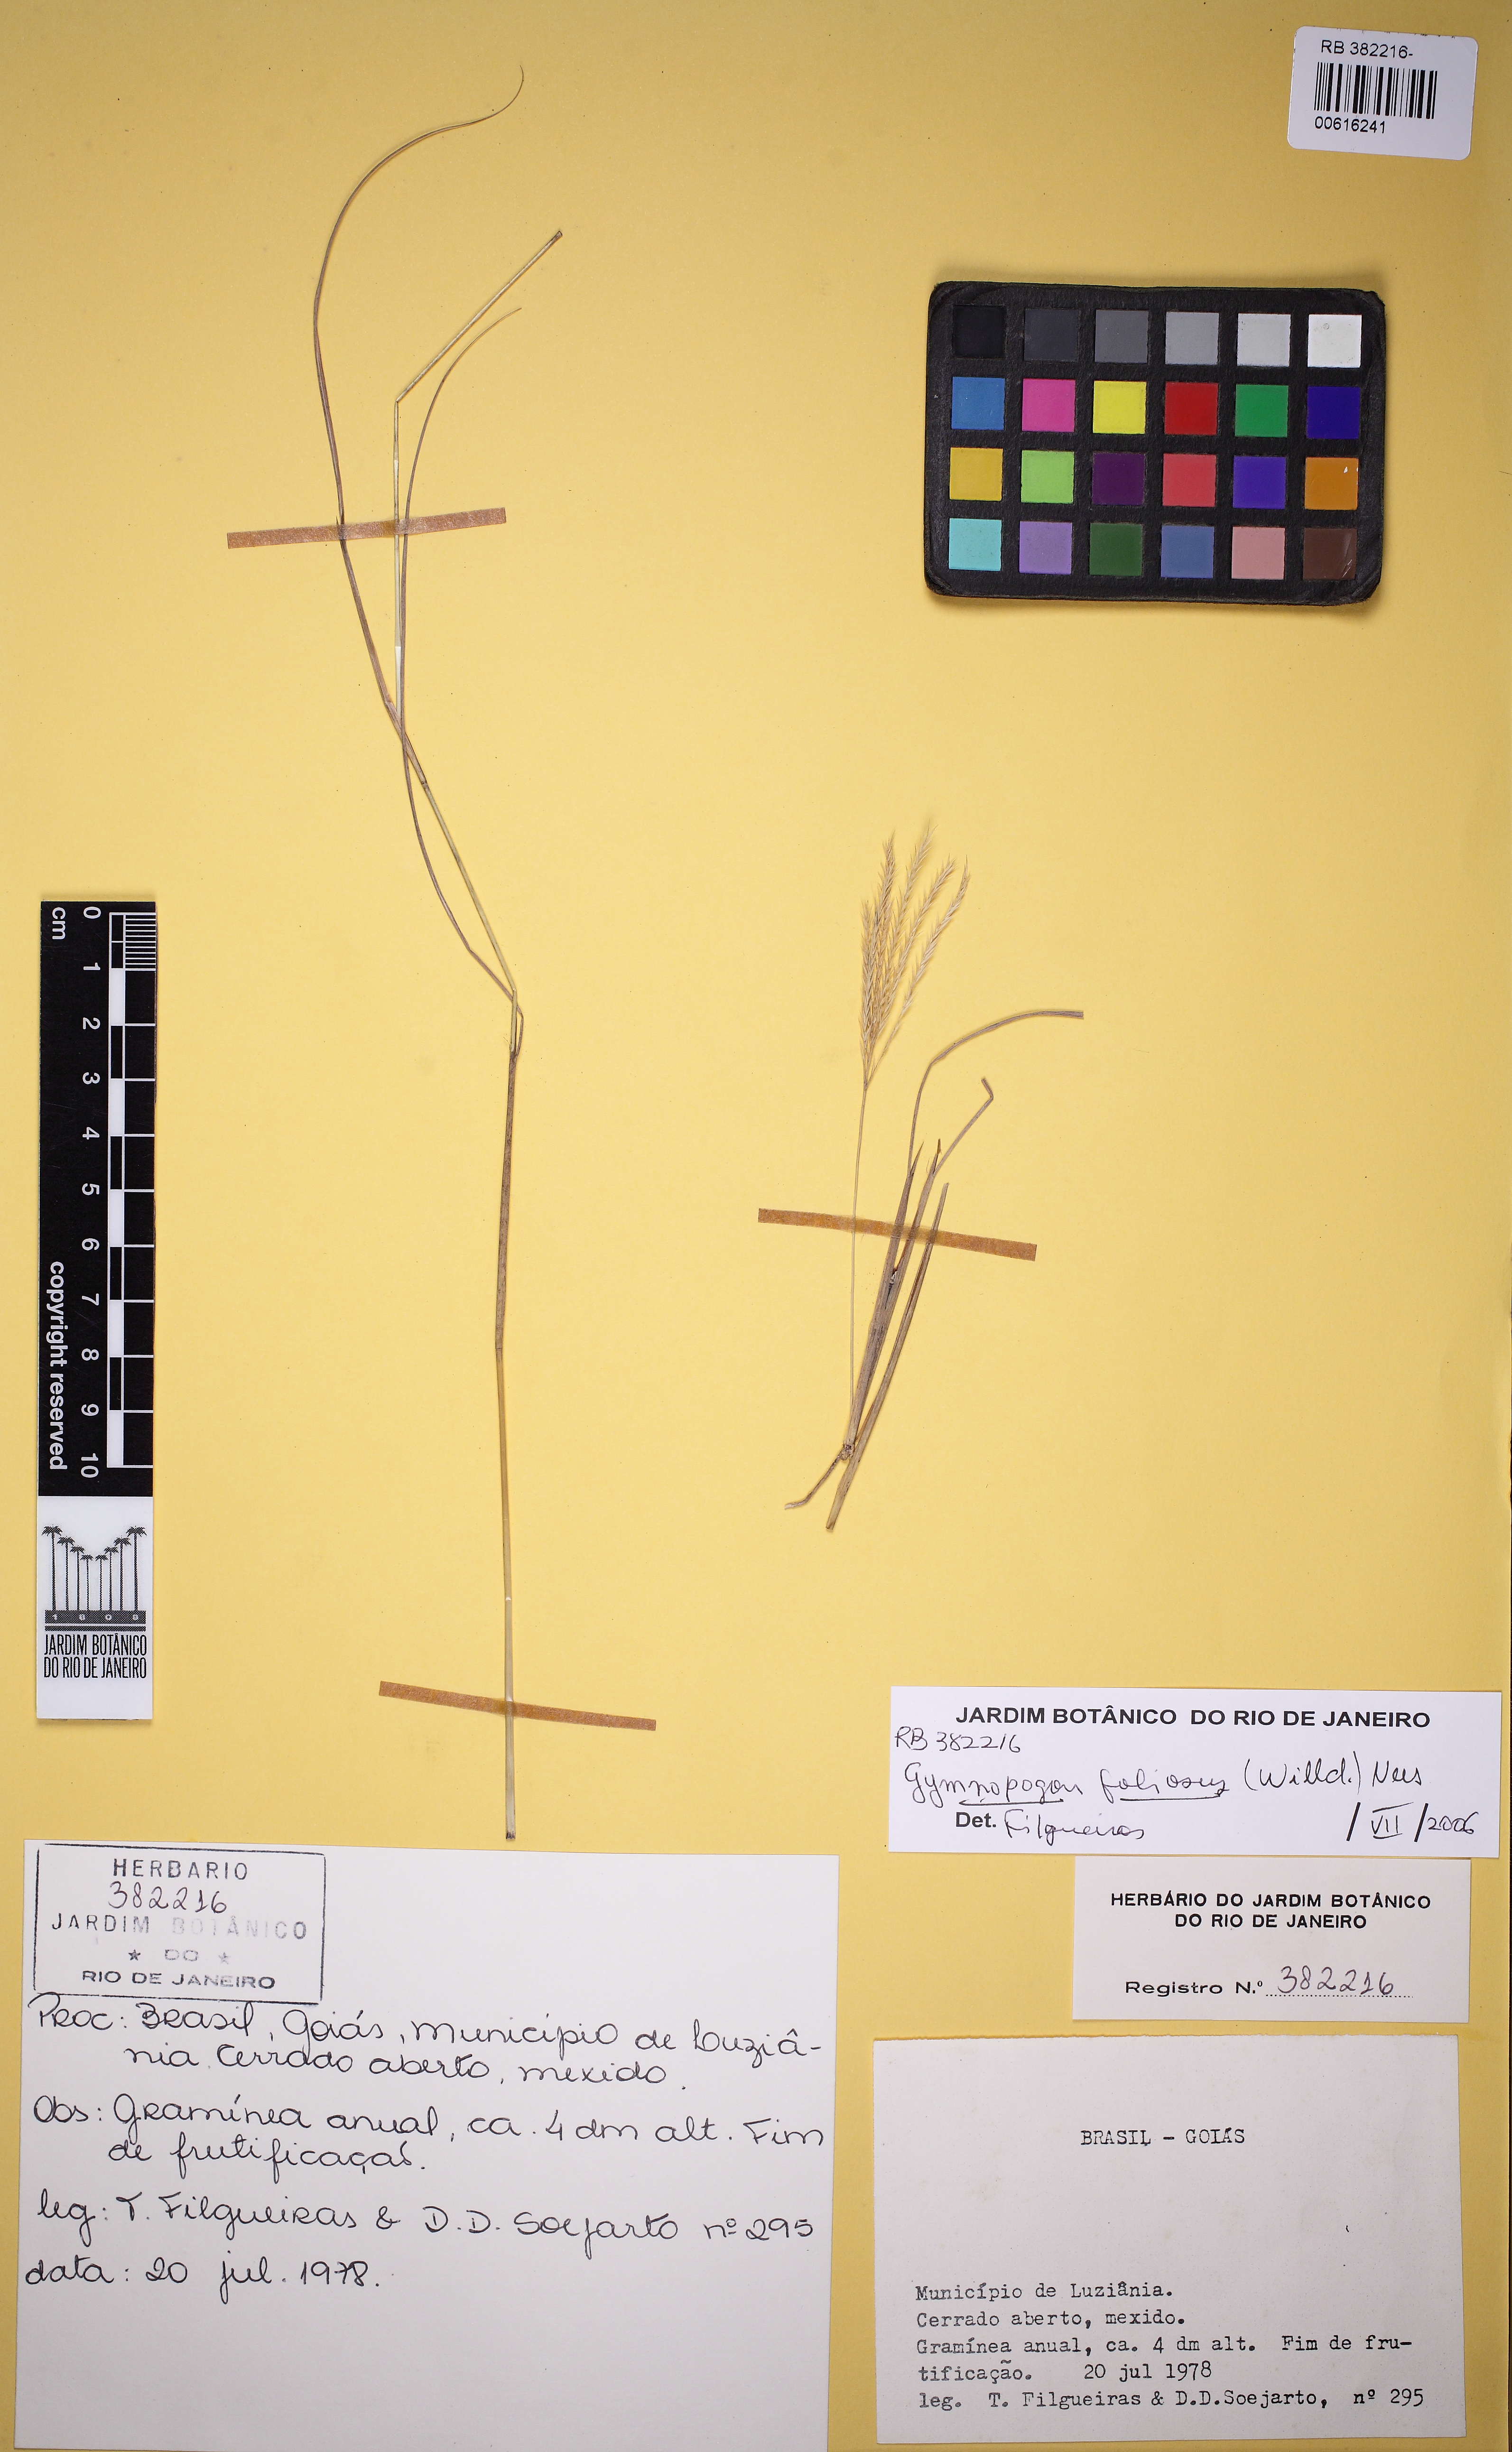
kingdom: Plantae
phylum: Tracheophyta
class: Liliopsida
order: Poales
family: Poaceae
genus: Gymnopogon
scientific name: Gymnopogon foliosus
